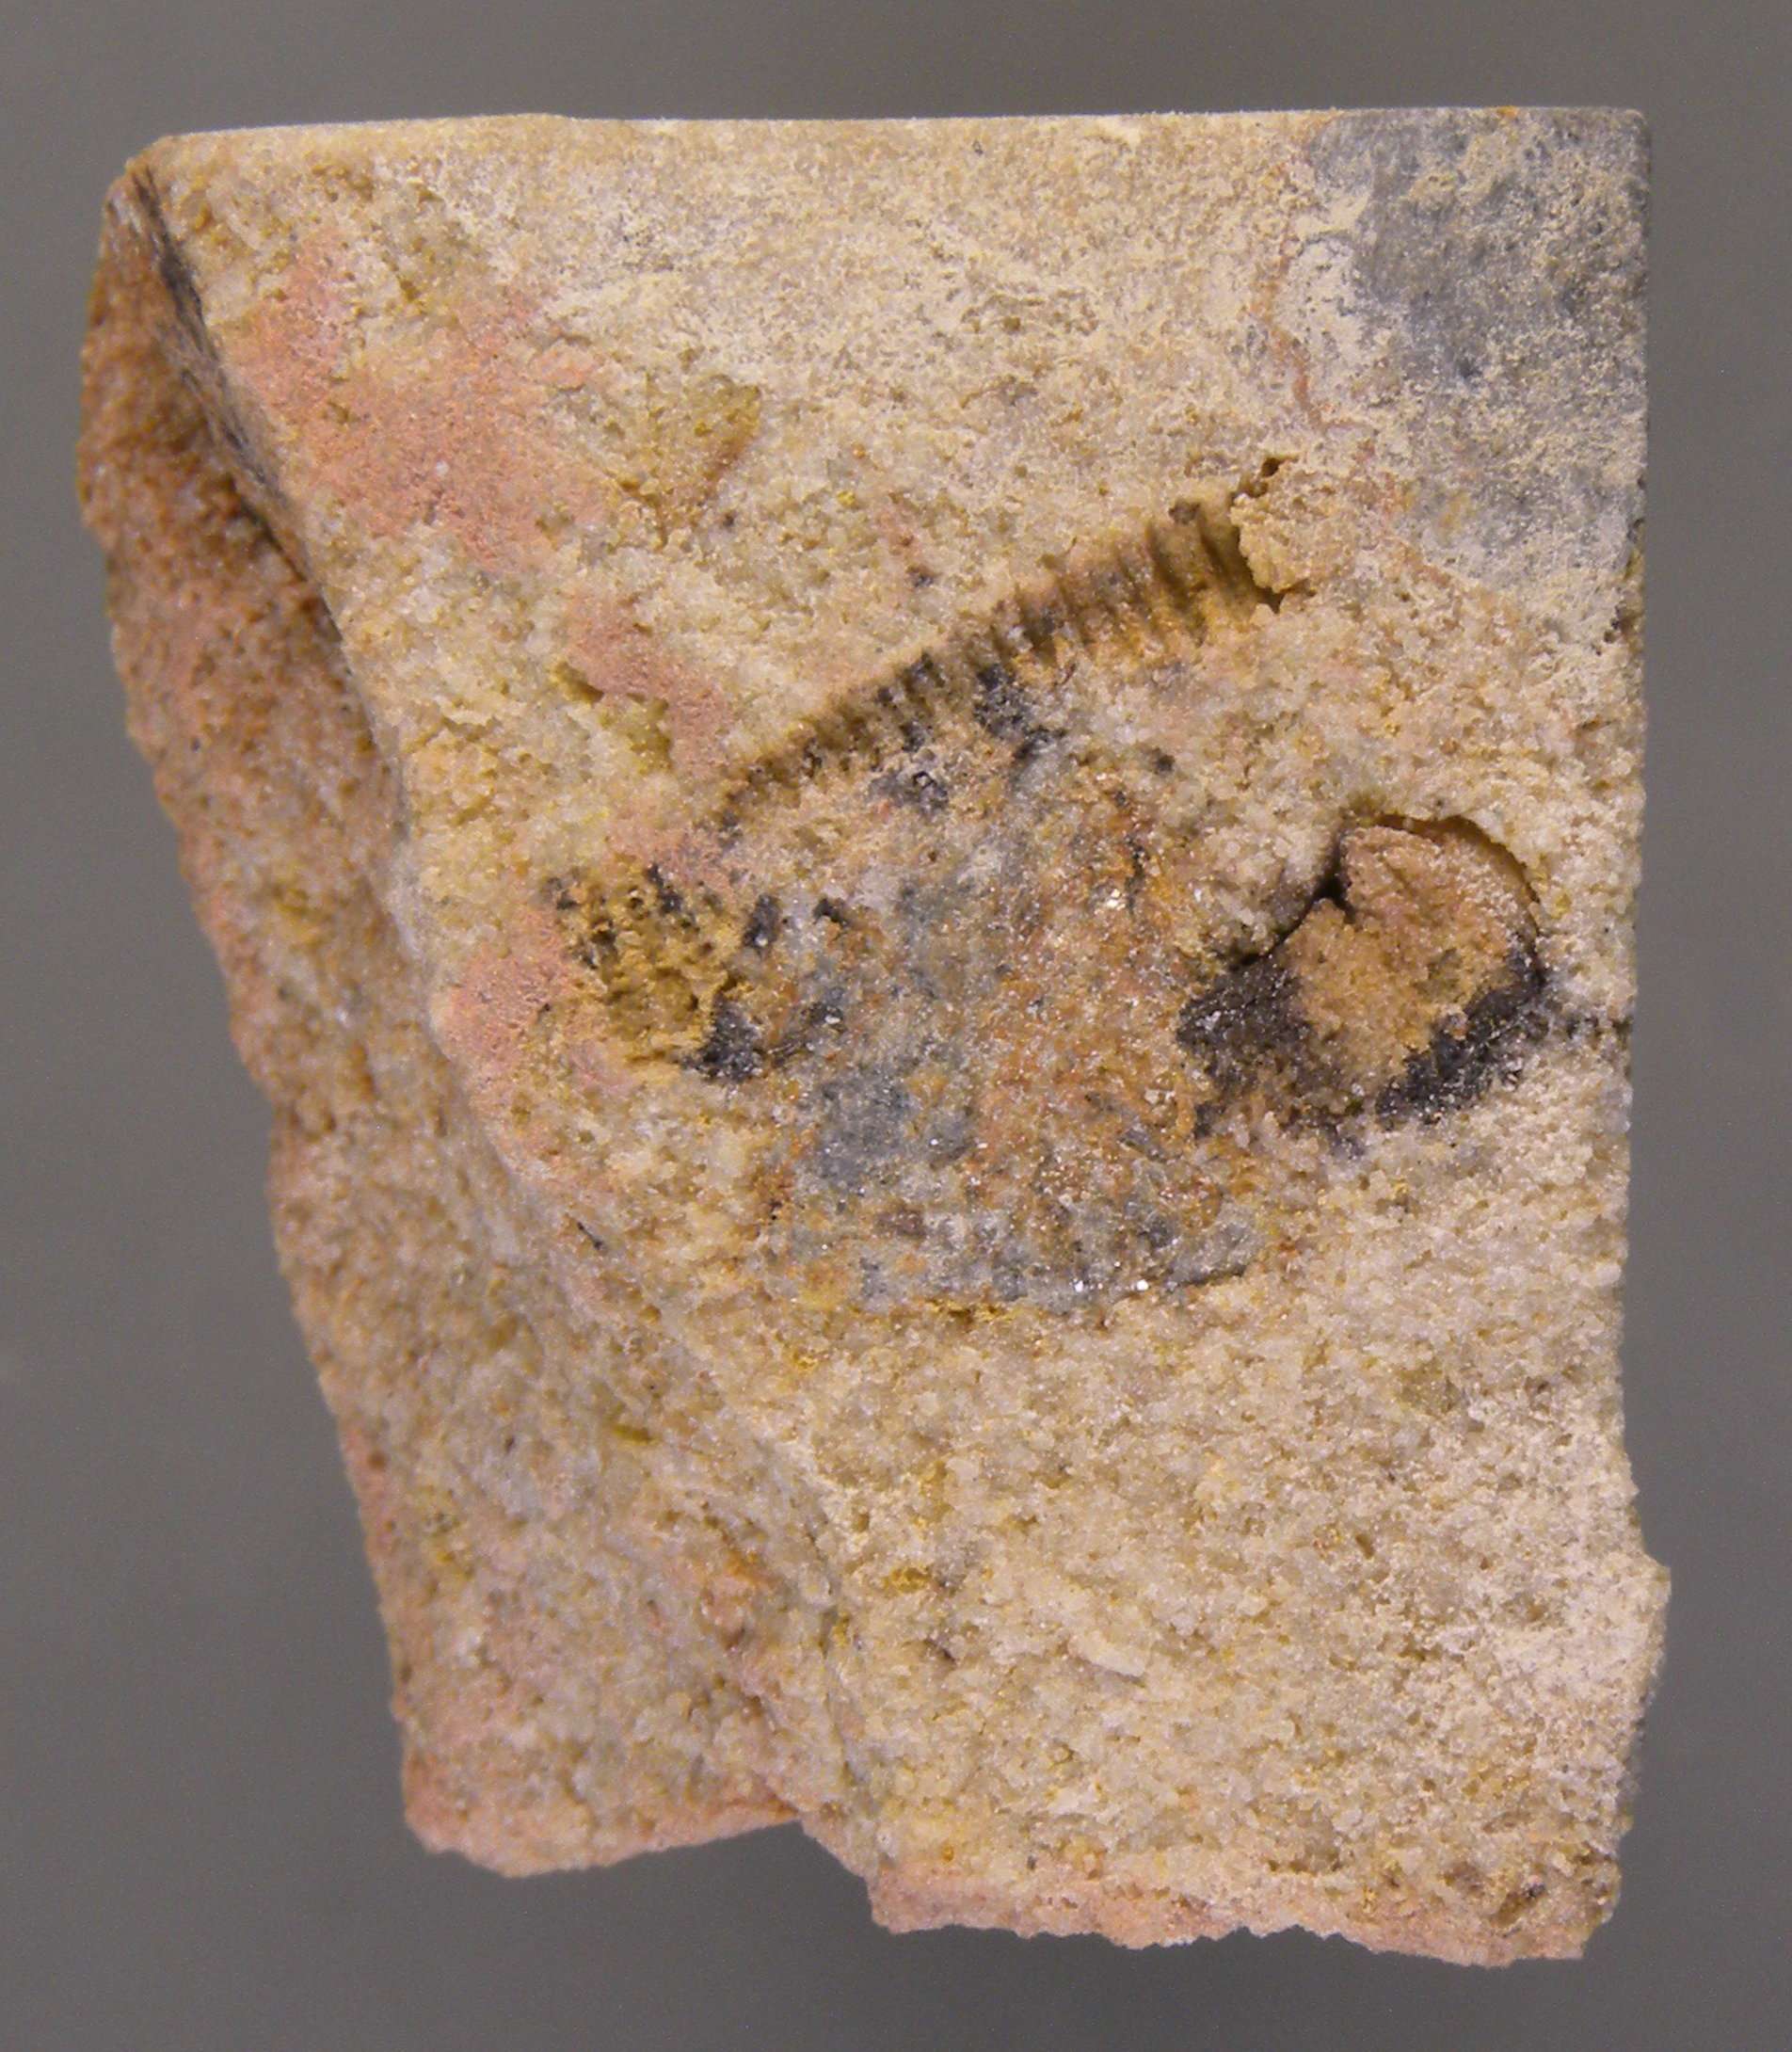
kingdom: Animalia
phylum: Mollusca
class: Bivalvia
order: Nuculanida
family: Cucullellidae
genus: Nuculites
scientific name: Nuculites
